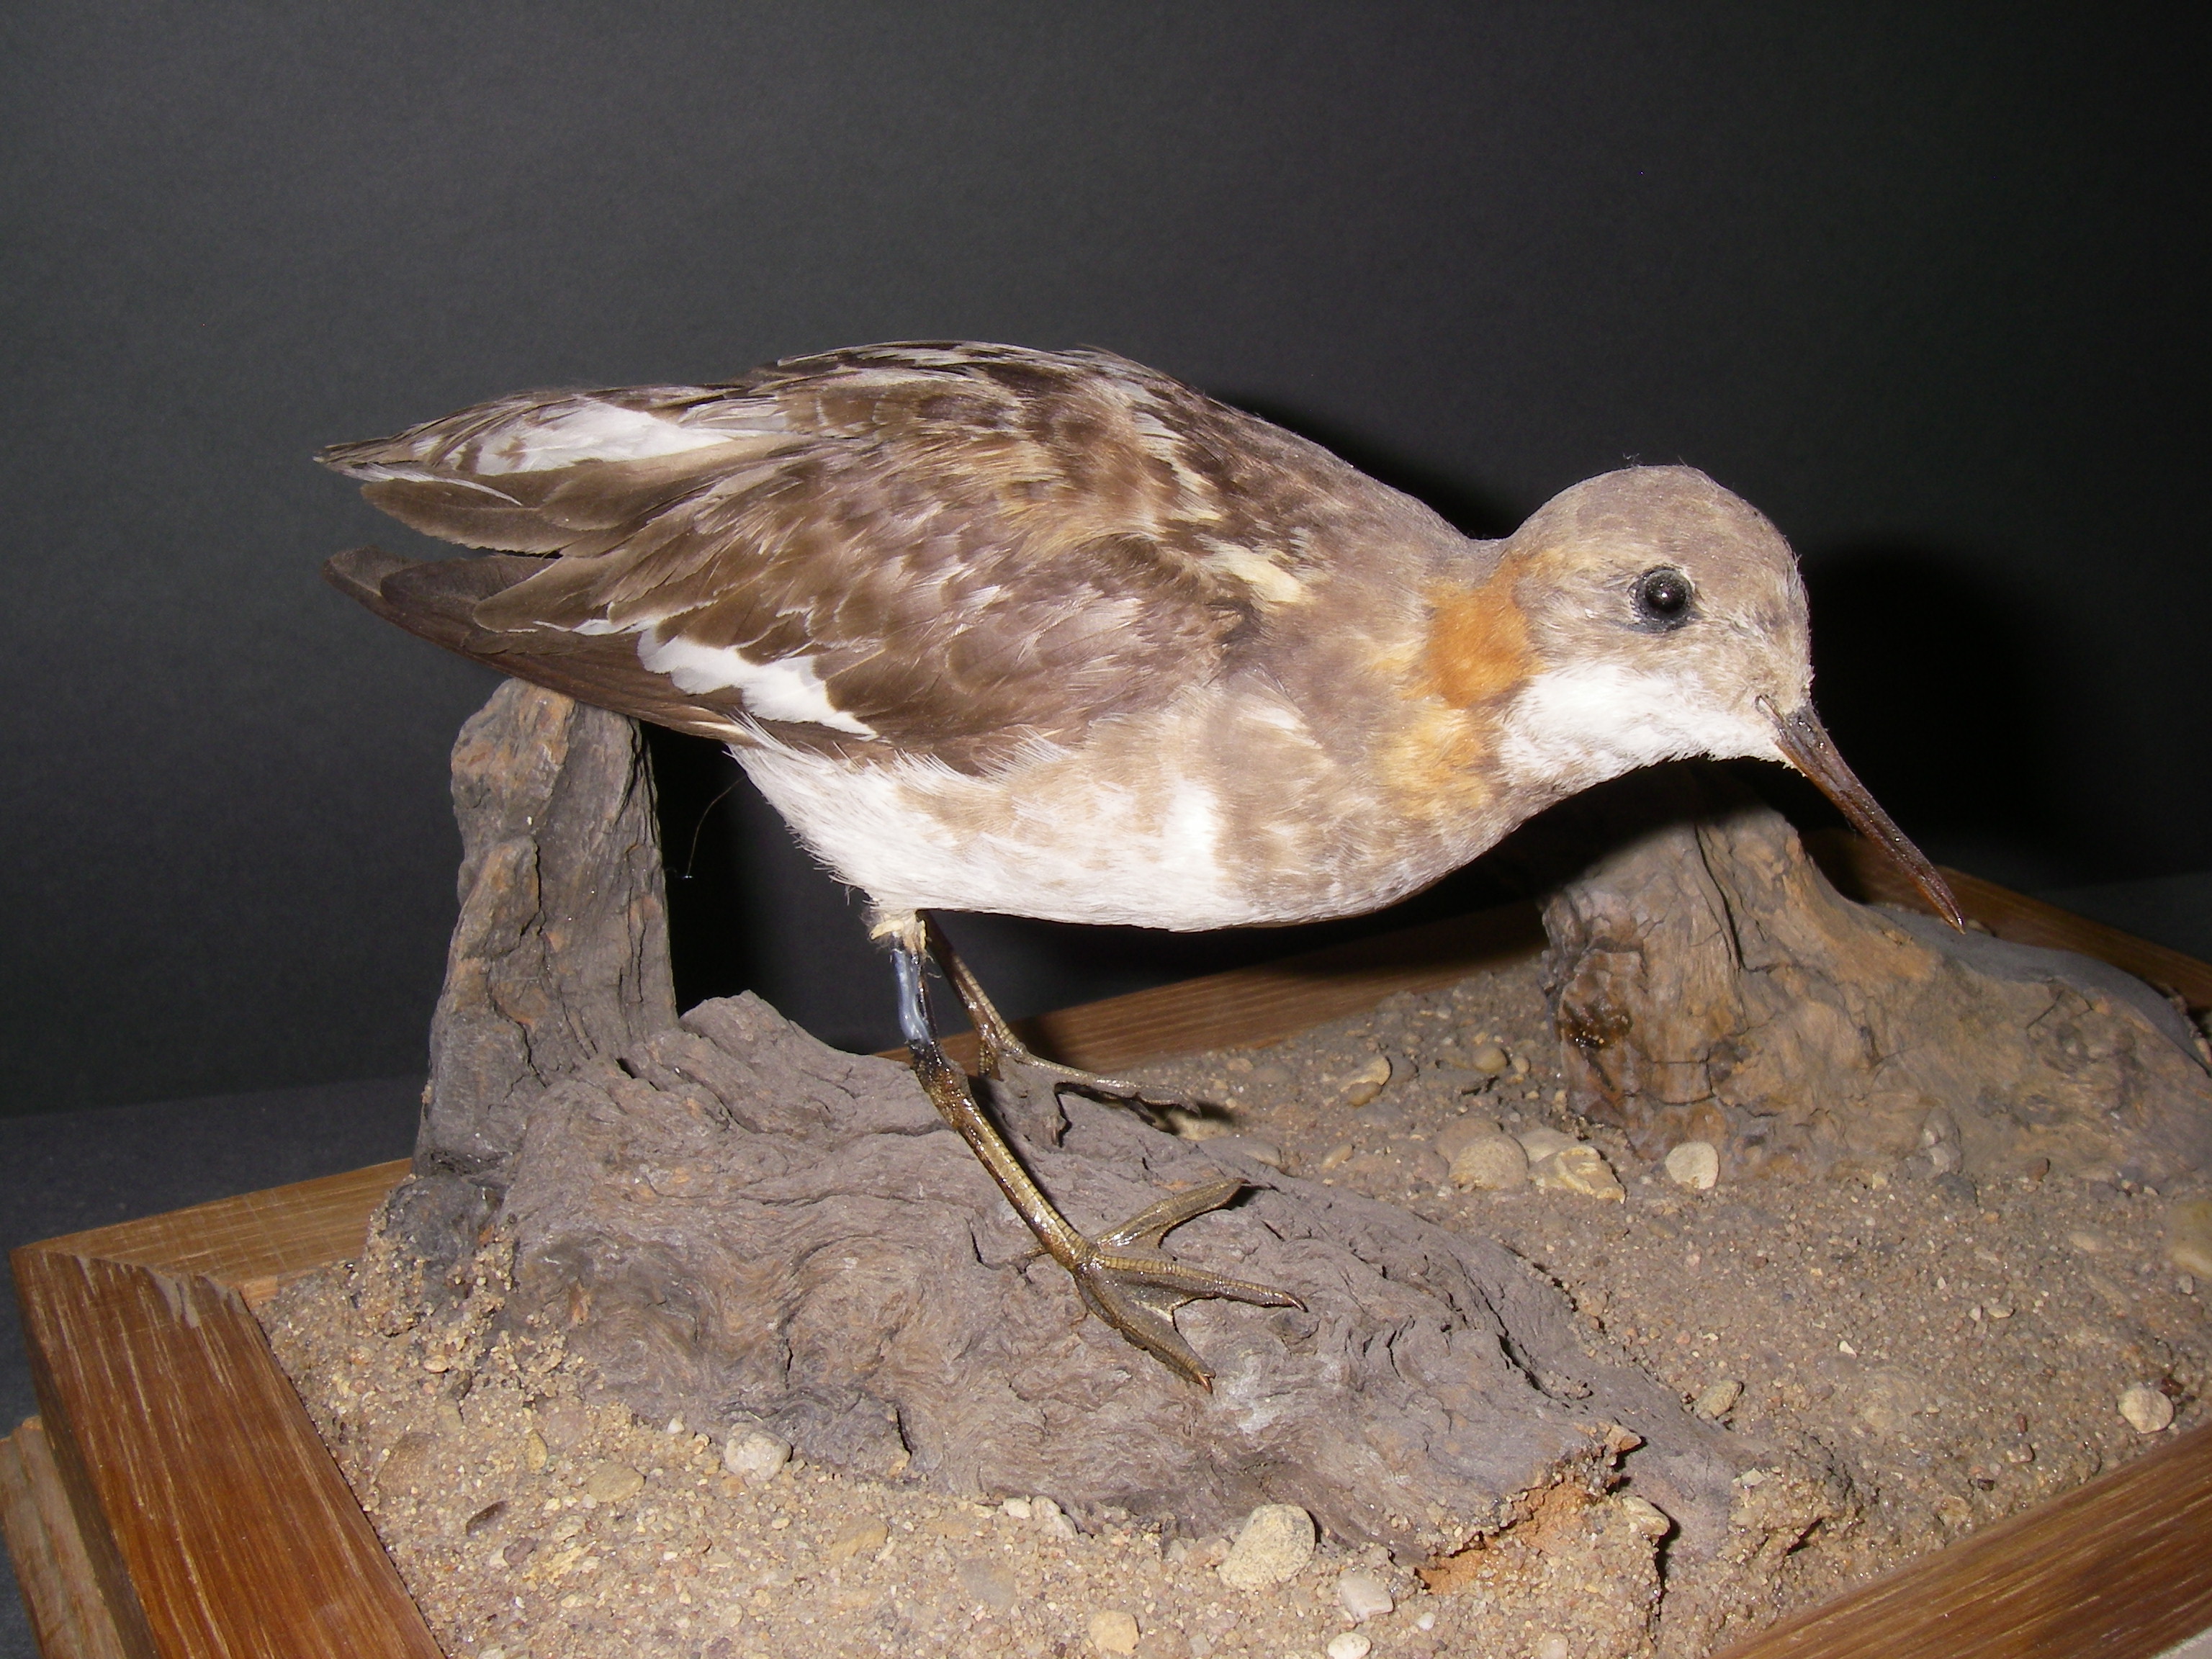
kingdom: Animalia
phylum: Chordata
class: Aves
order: Charadriiformes
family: Scolopacidae
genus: Phalaropus
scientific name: Phalaropus lobatus
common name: Red-necked phalarope
